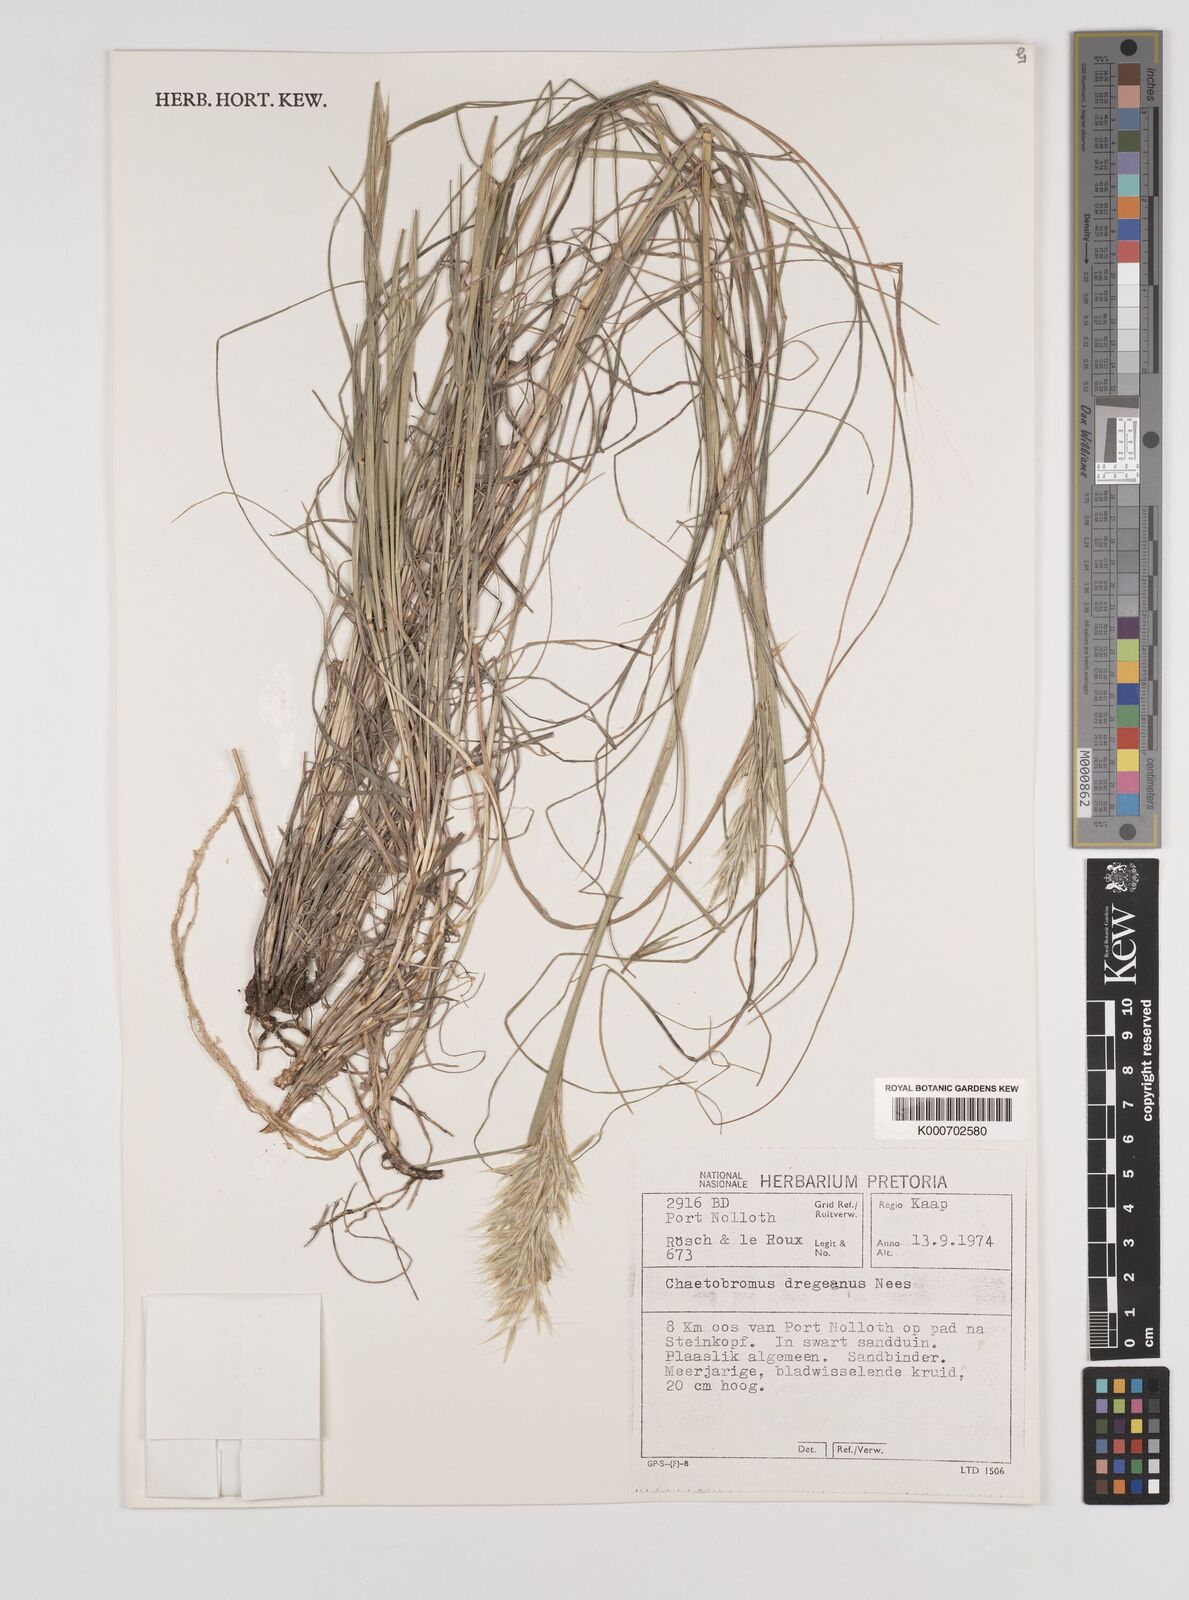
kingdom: Plantae
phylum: Tracheophyta
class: Liliopsida
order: Poales
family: Poaceae
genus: Chaetobromus
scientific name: Chaetobromus involucratus
